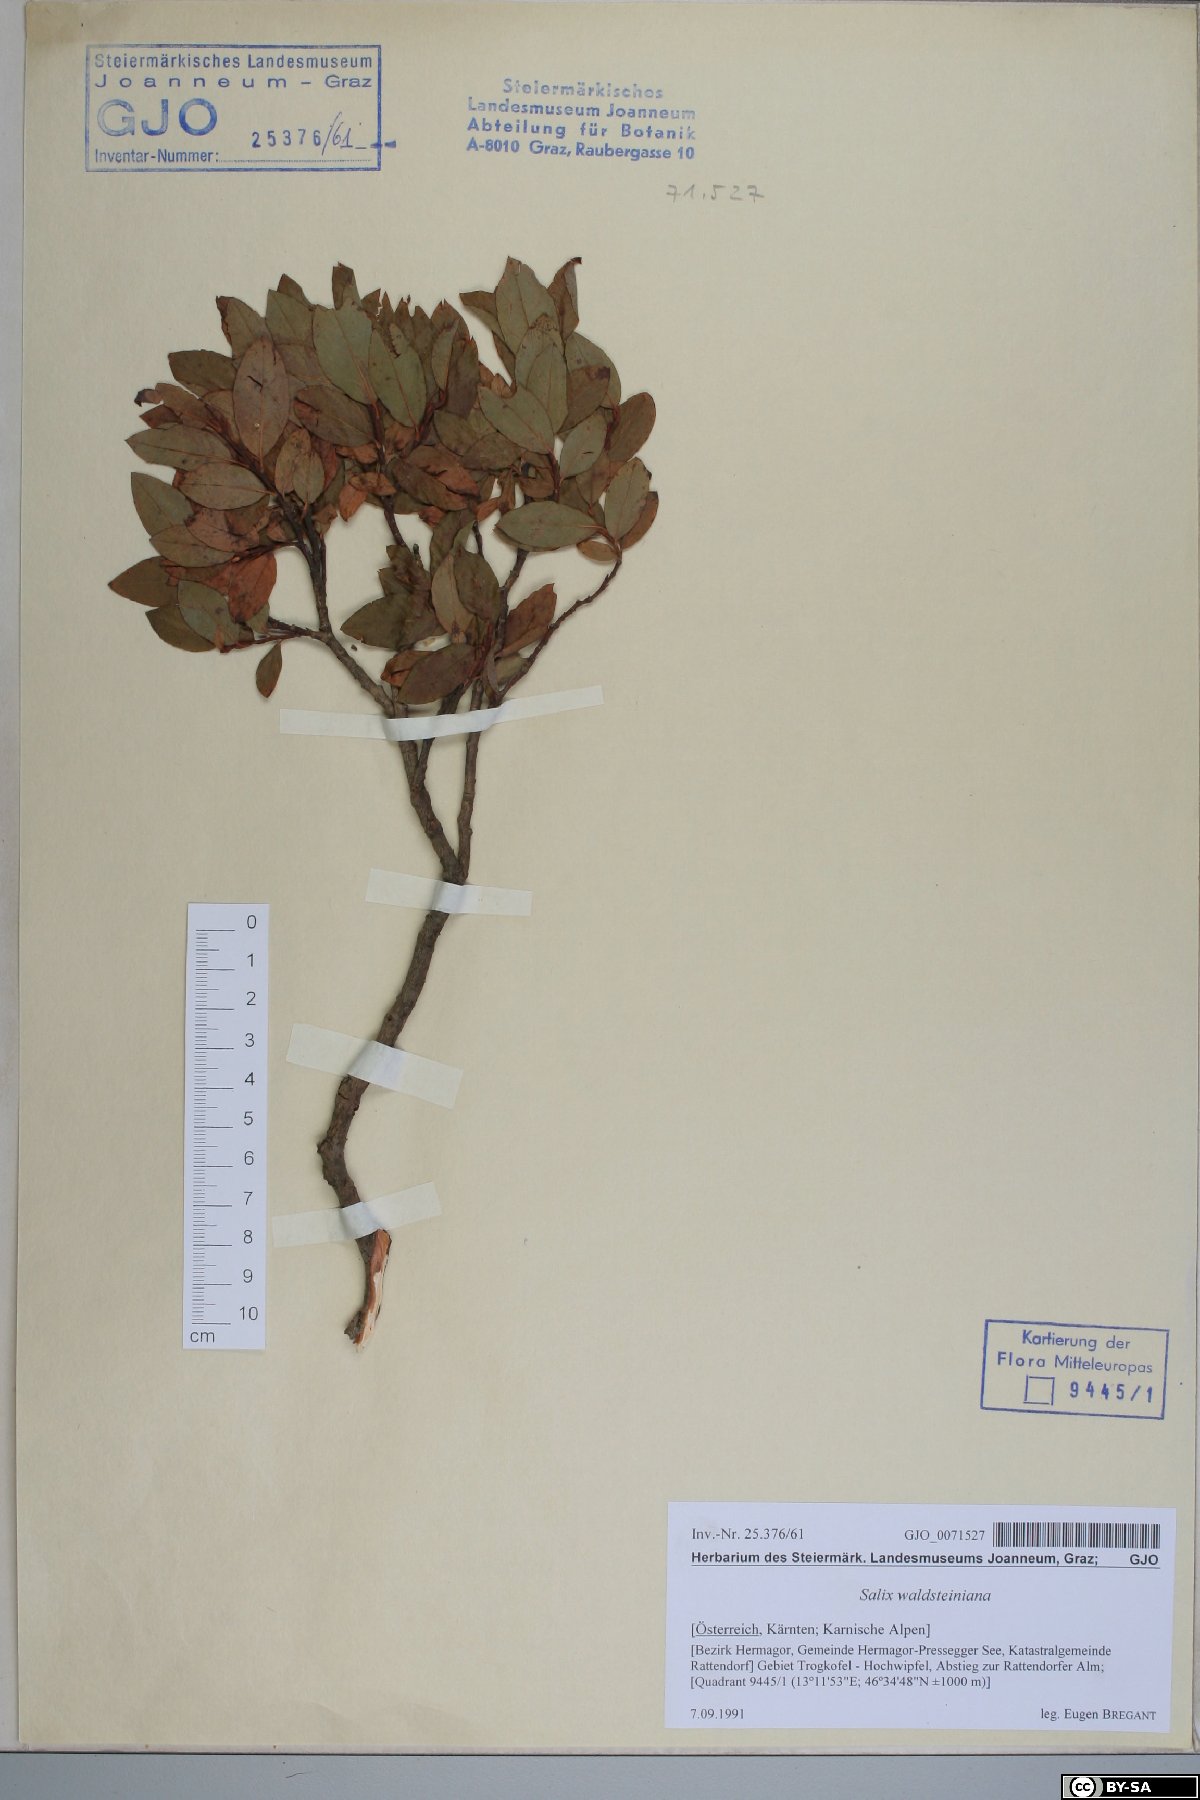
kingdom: Plantae
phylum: Tracheophyta
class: Magnoliopsida
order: Malpighiales
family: Salicaceae
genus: Salix
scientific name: Salix waldsteiniana
